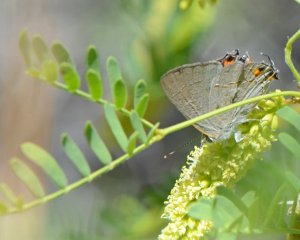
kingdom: Animalia
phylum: Arthropoda
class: Insecta
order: Lepidoptera
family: Lycaenidae
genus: Strymon
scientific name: Strymon melinus
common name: Gray Hairstreak
